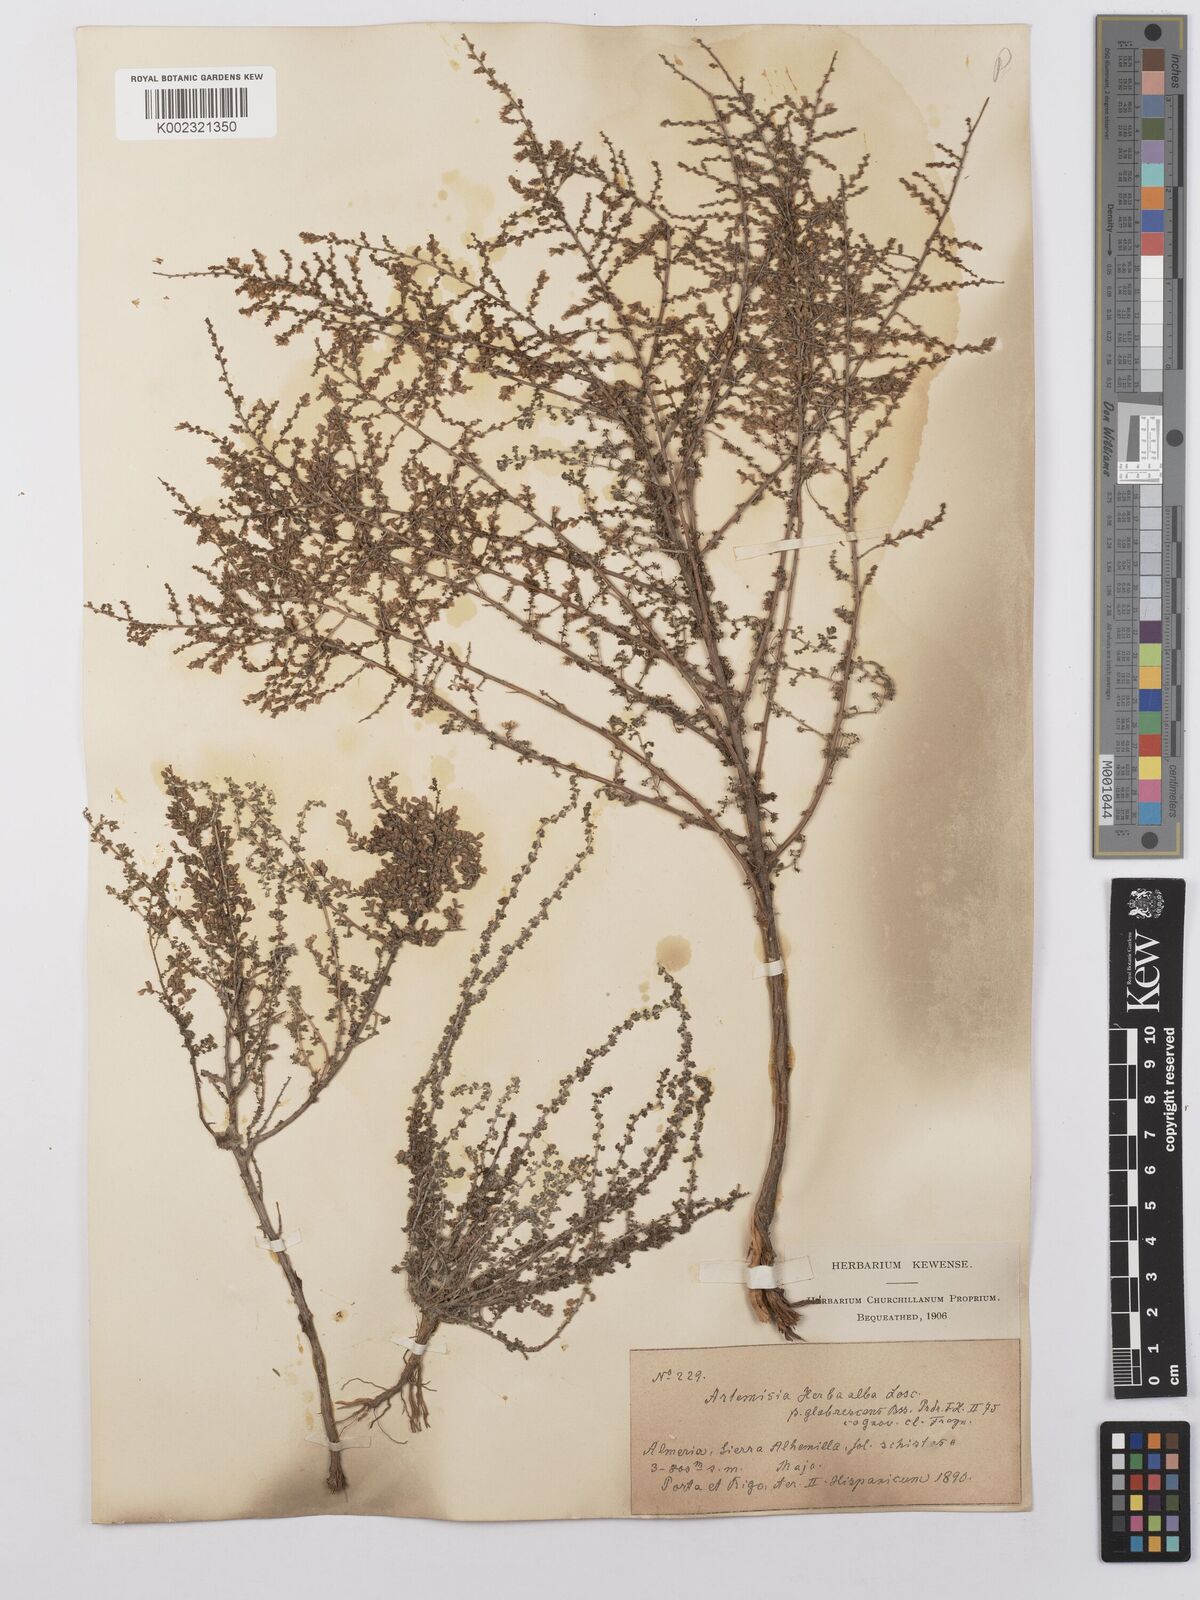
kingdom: Plantae
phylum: Tracheophyta
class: Magnoliopsida
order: Asterales
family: Asteraceae
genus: Artemisia
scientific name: Artemisia herba-alba
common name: White wormwood
